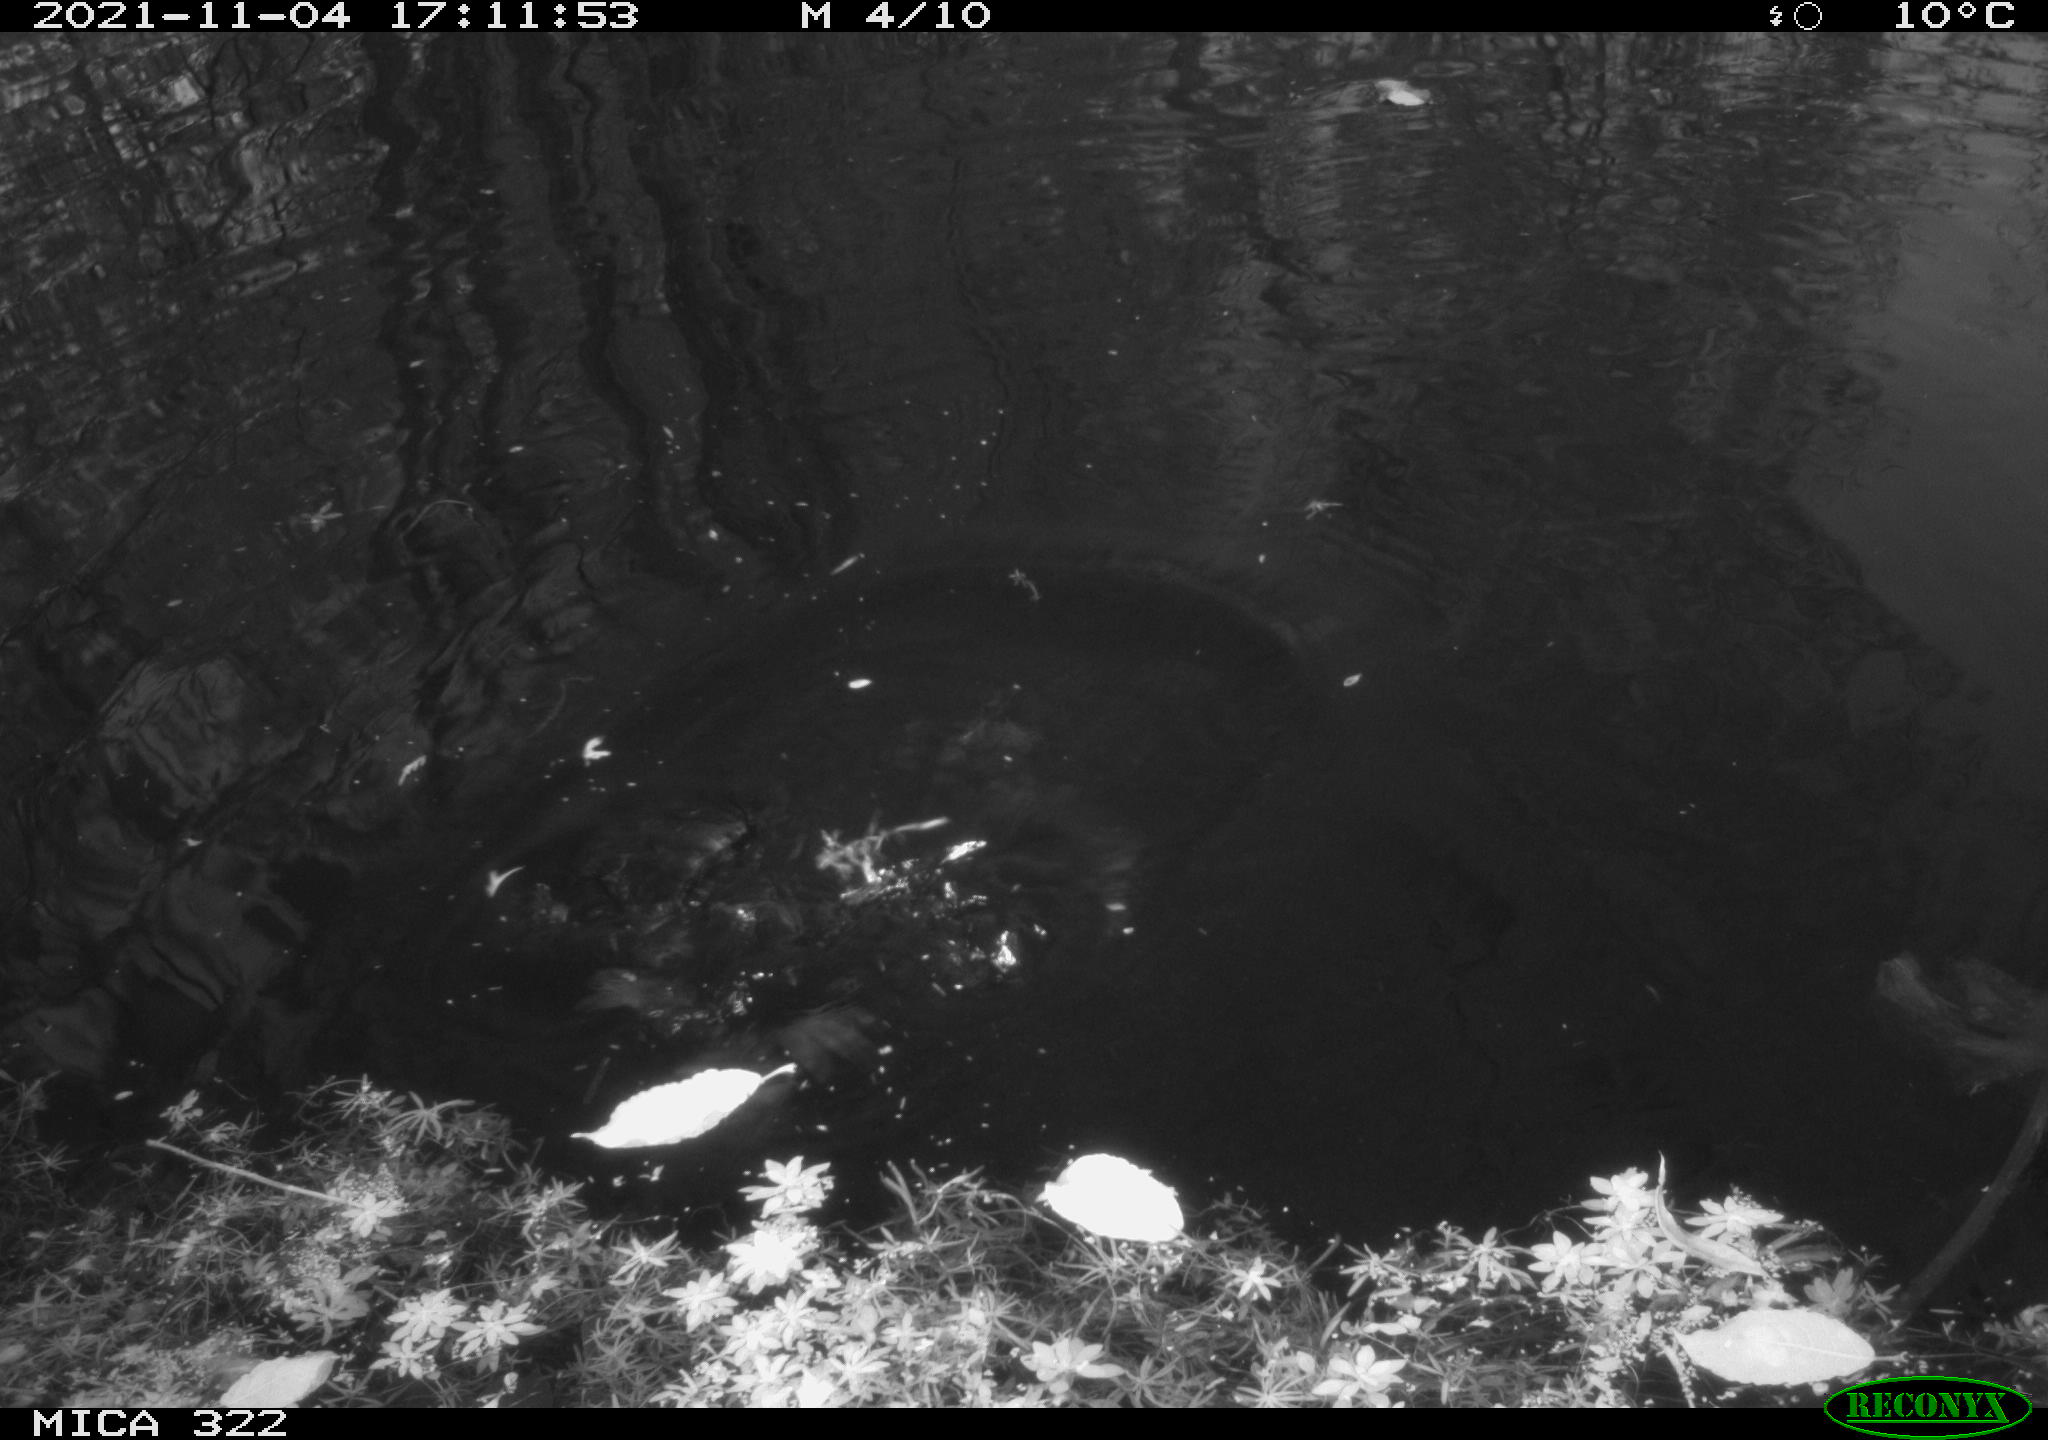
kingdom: Animalia
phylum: Chordata
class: Aves
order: Gruiformes
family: Rallidae
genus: Gallinula
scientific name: Gallinula chloropus
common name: Common moorhen
